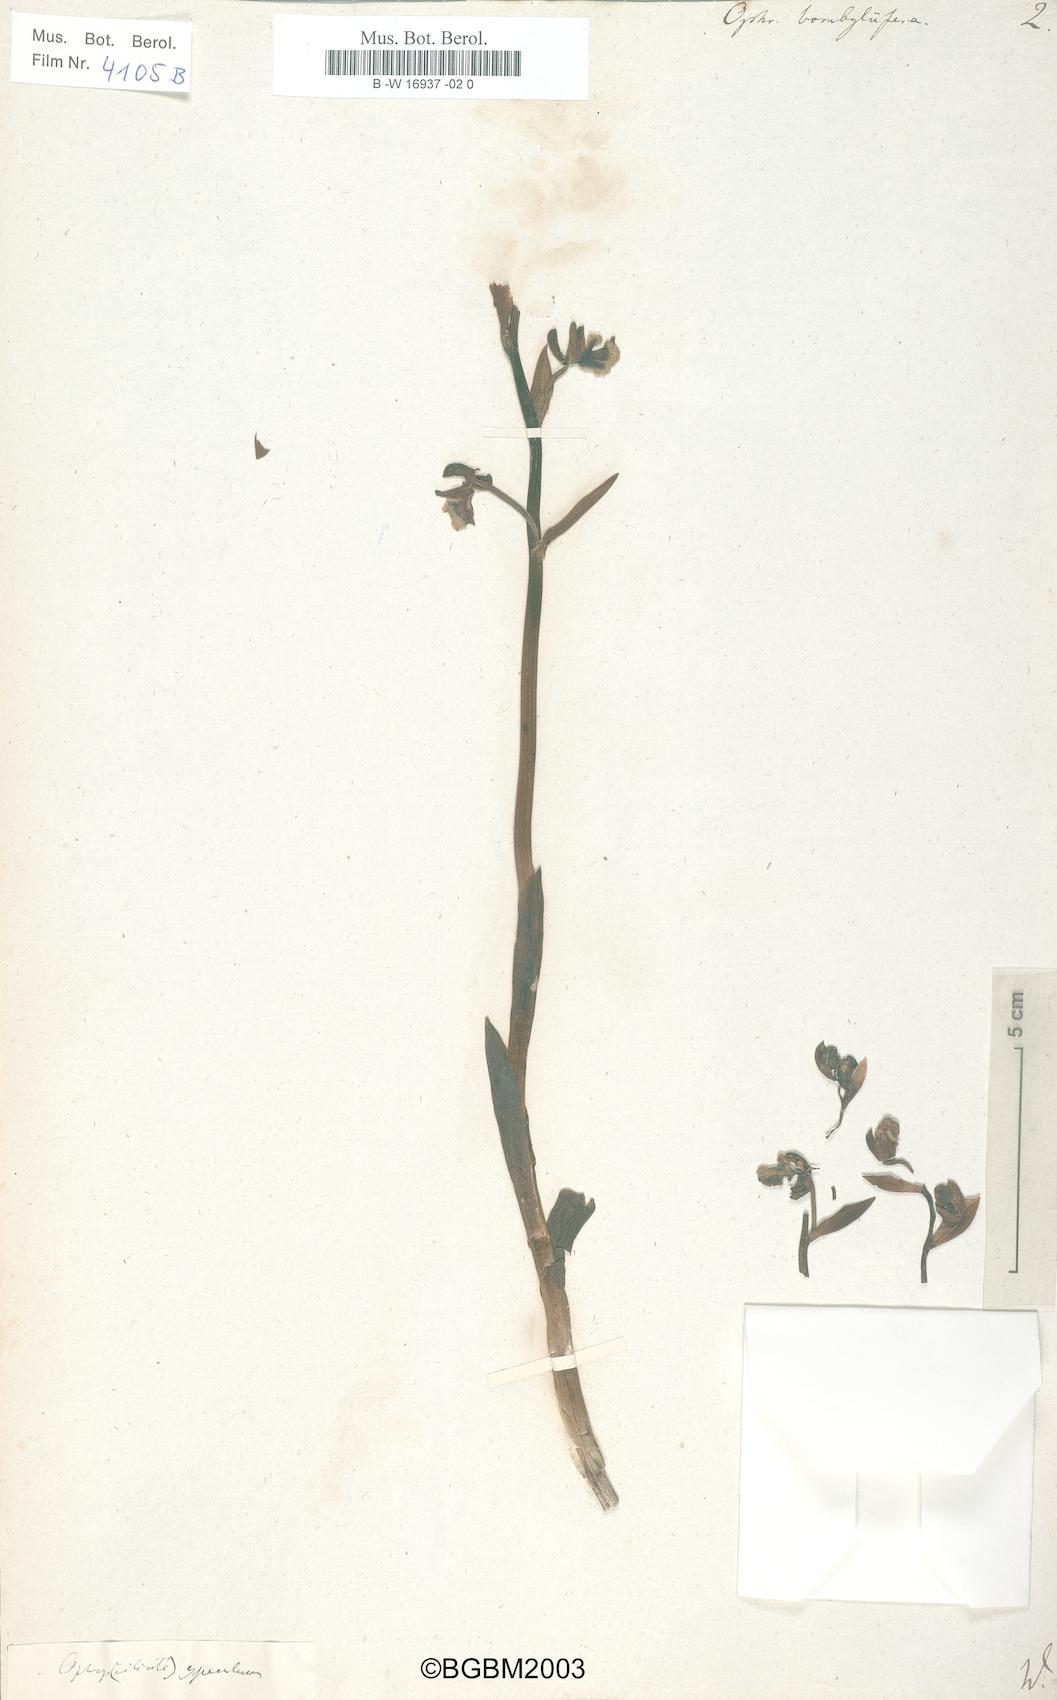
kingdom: Plantae
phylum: Tracheophyta
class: Liliopsida
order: Asparagales
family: Orchidaceae
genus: Ophrys
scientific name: Ophrys bombyliflora
